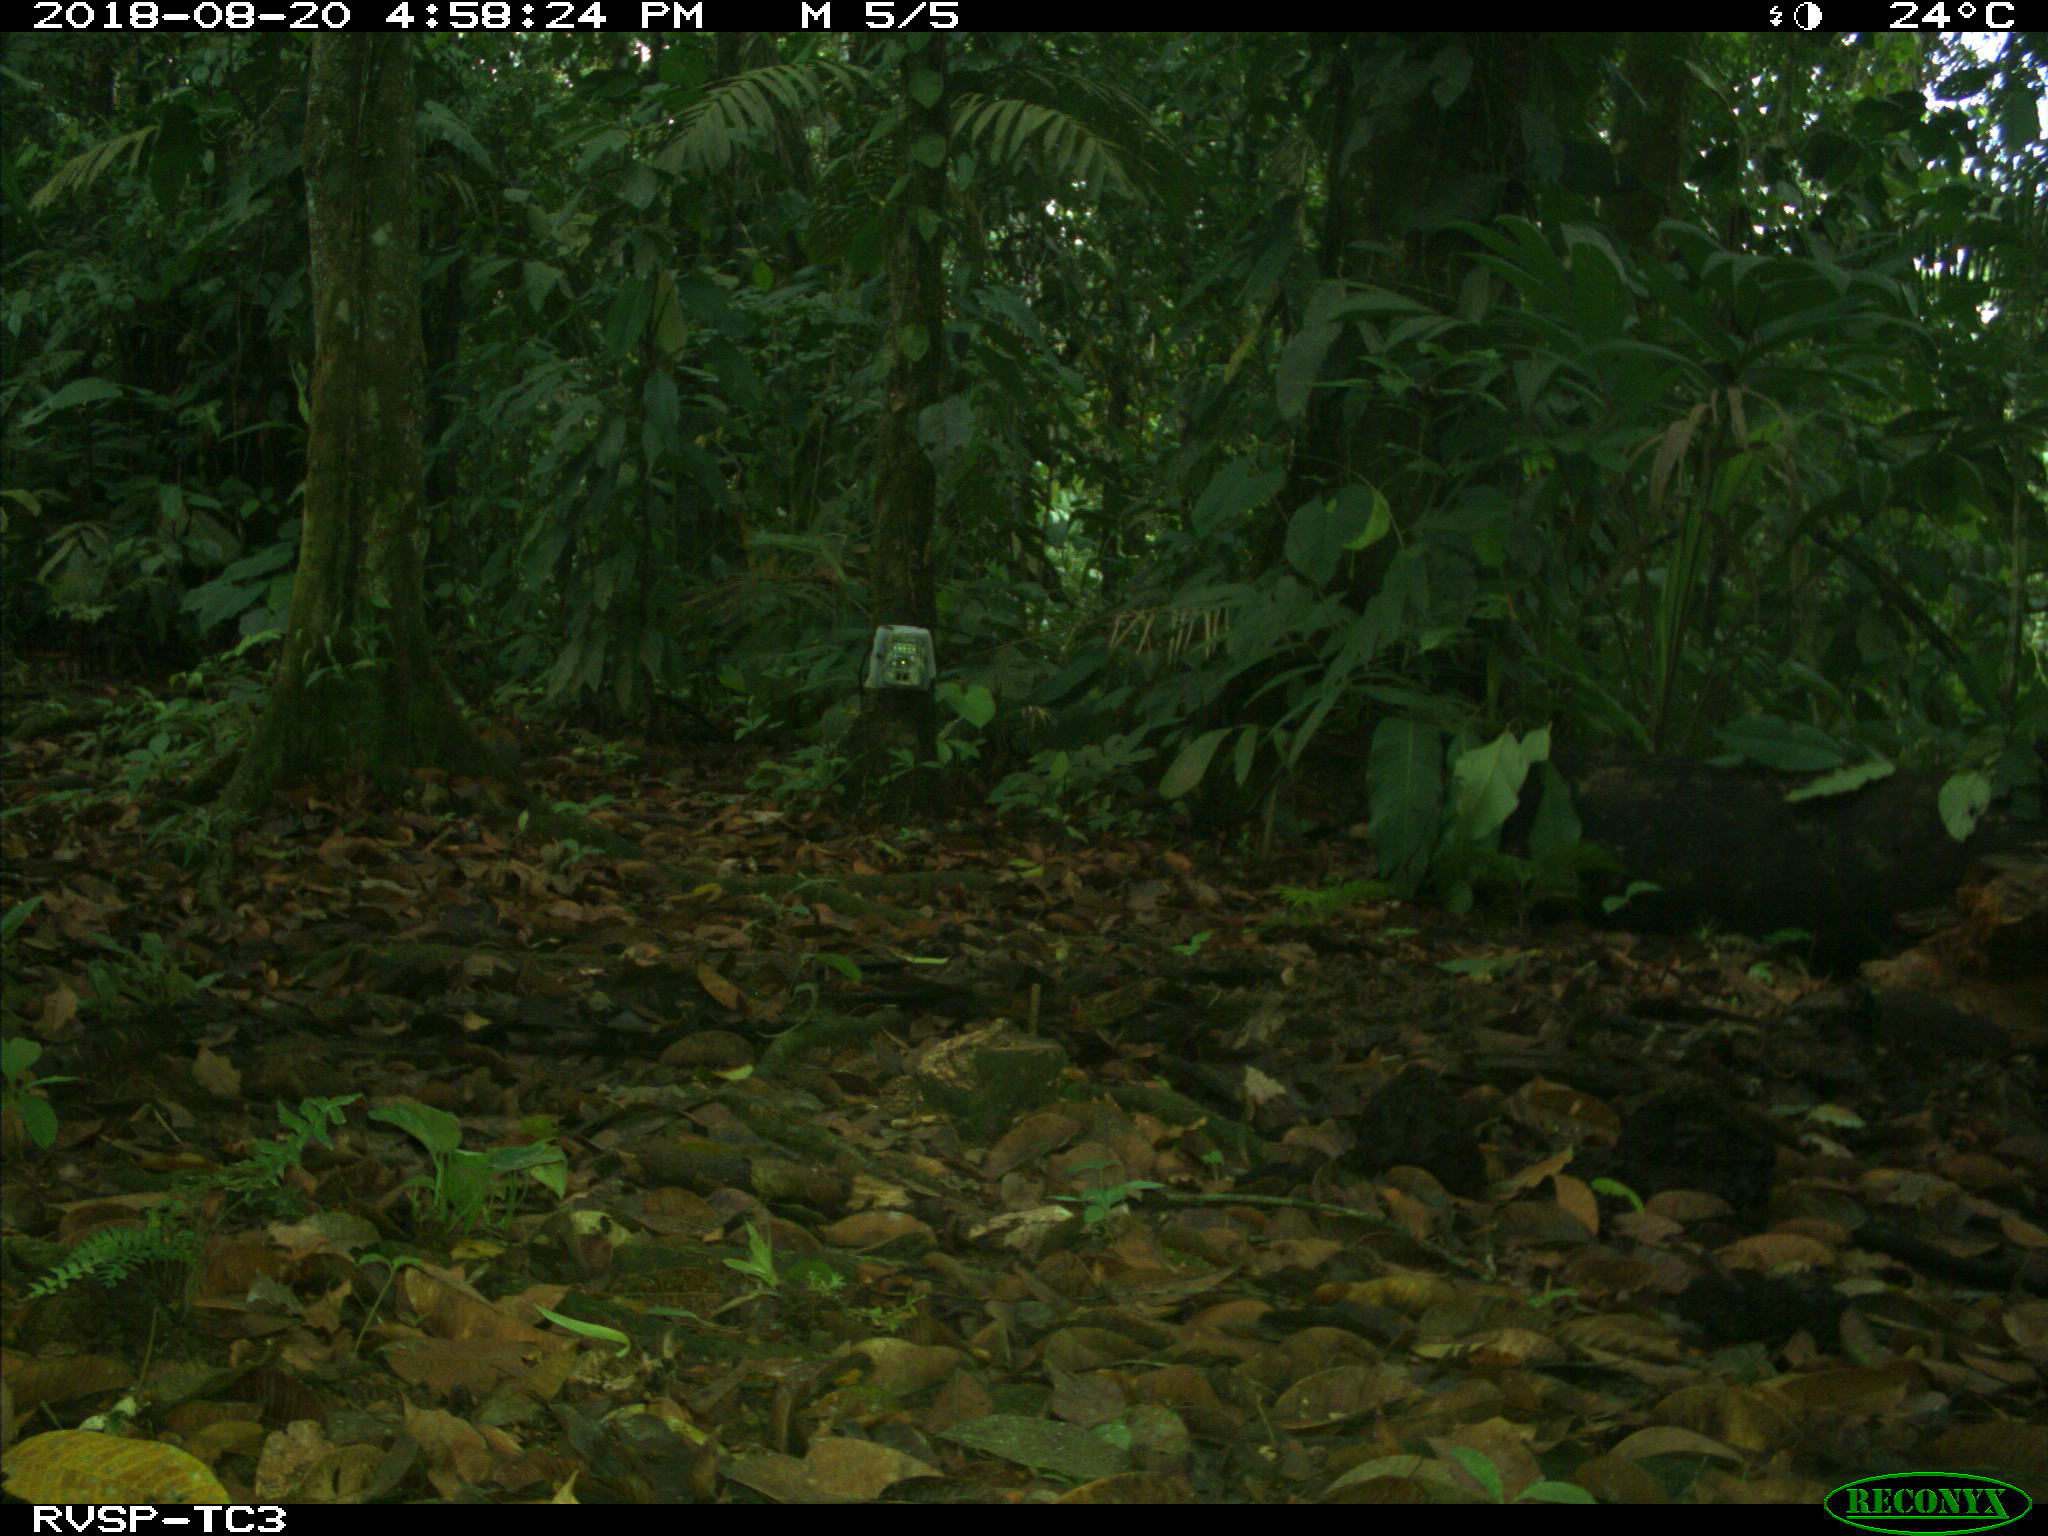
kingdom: Animalia
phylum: Chordata
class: Mammalia
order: Rodentia
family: Dasyproctidae
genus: Dasyprocta
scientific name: Dasyprocta punctata
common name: Central american agouti
